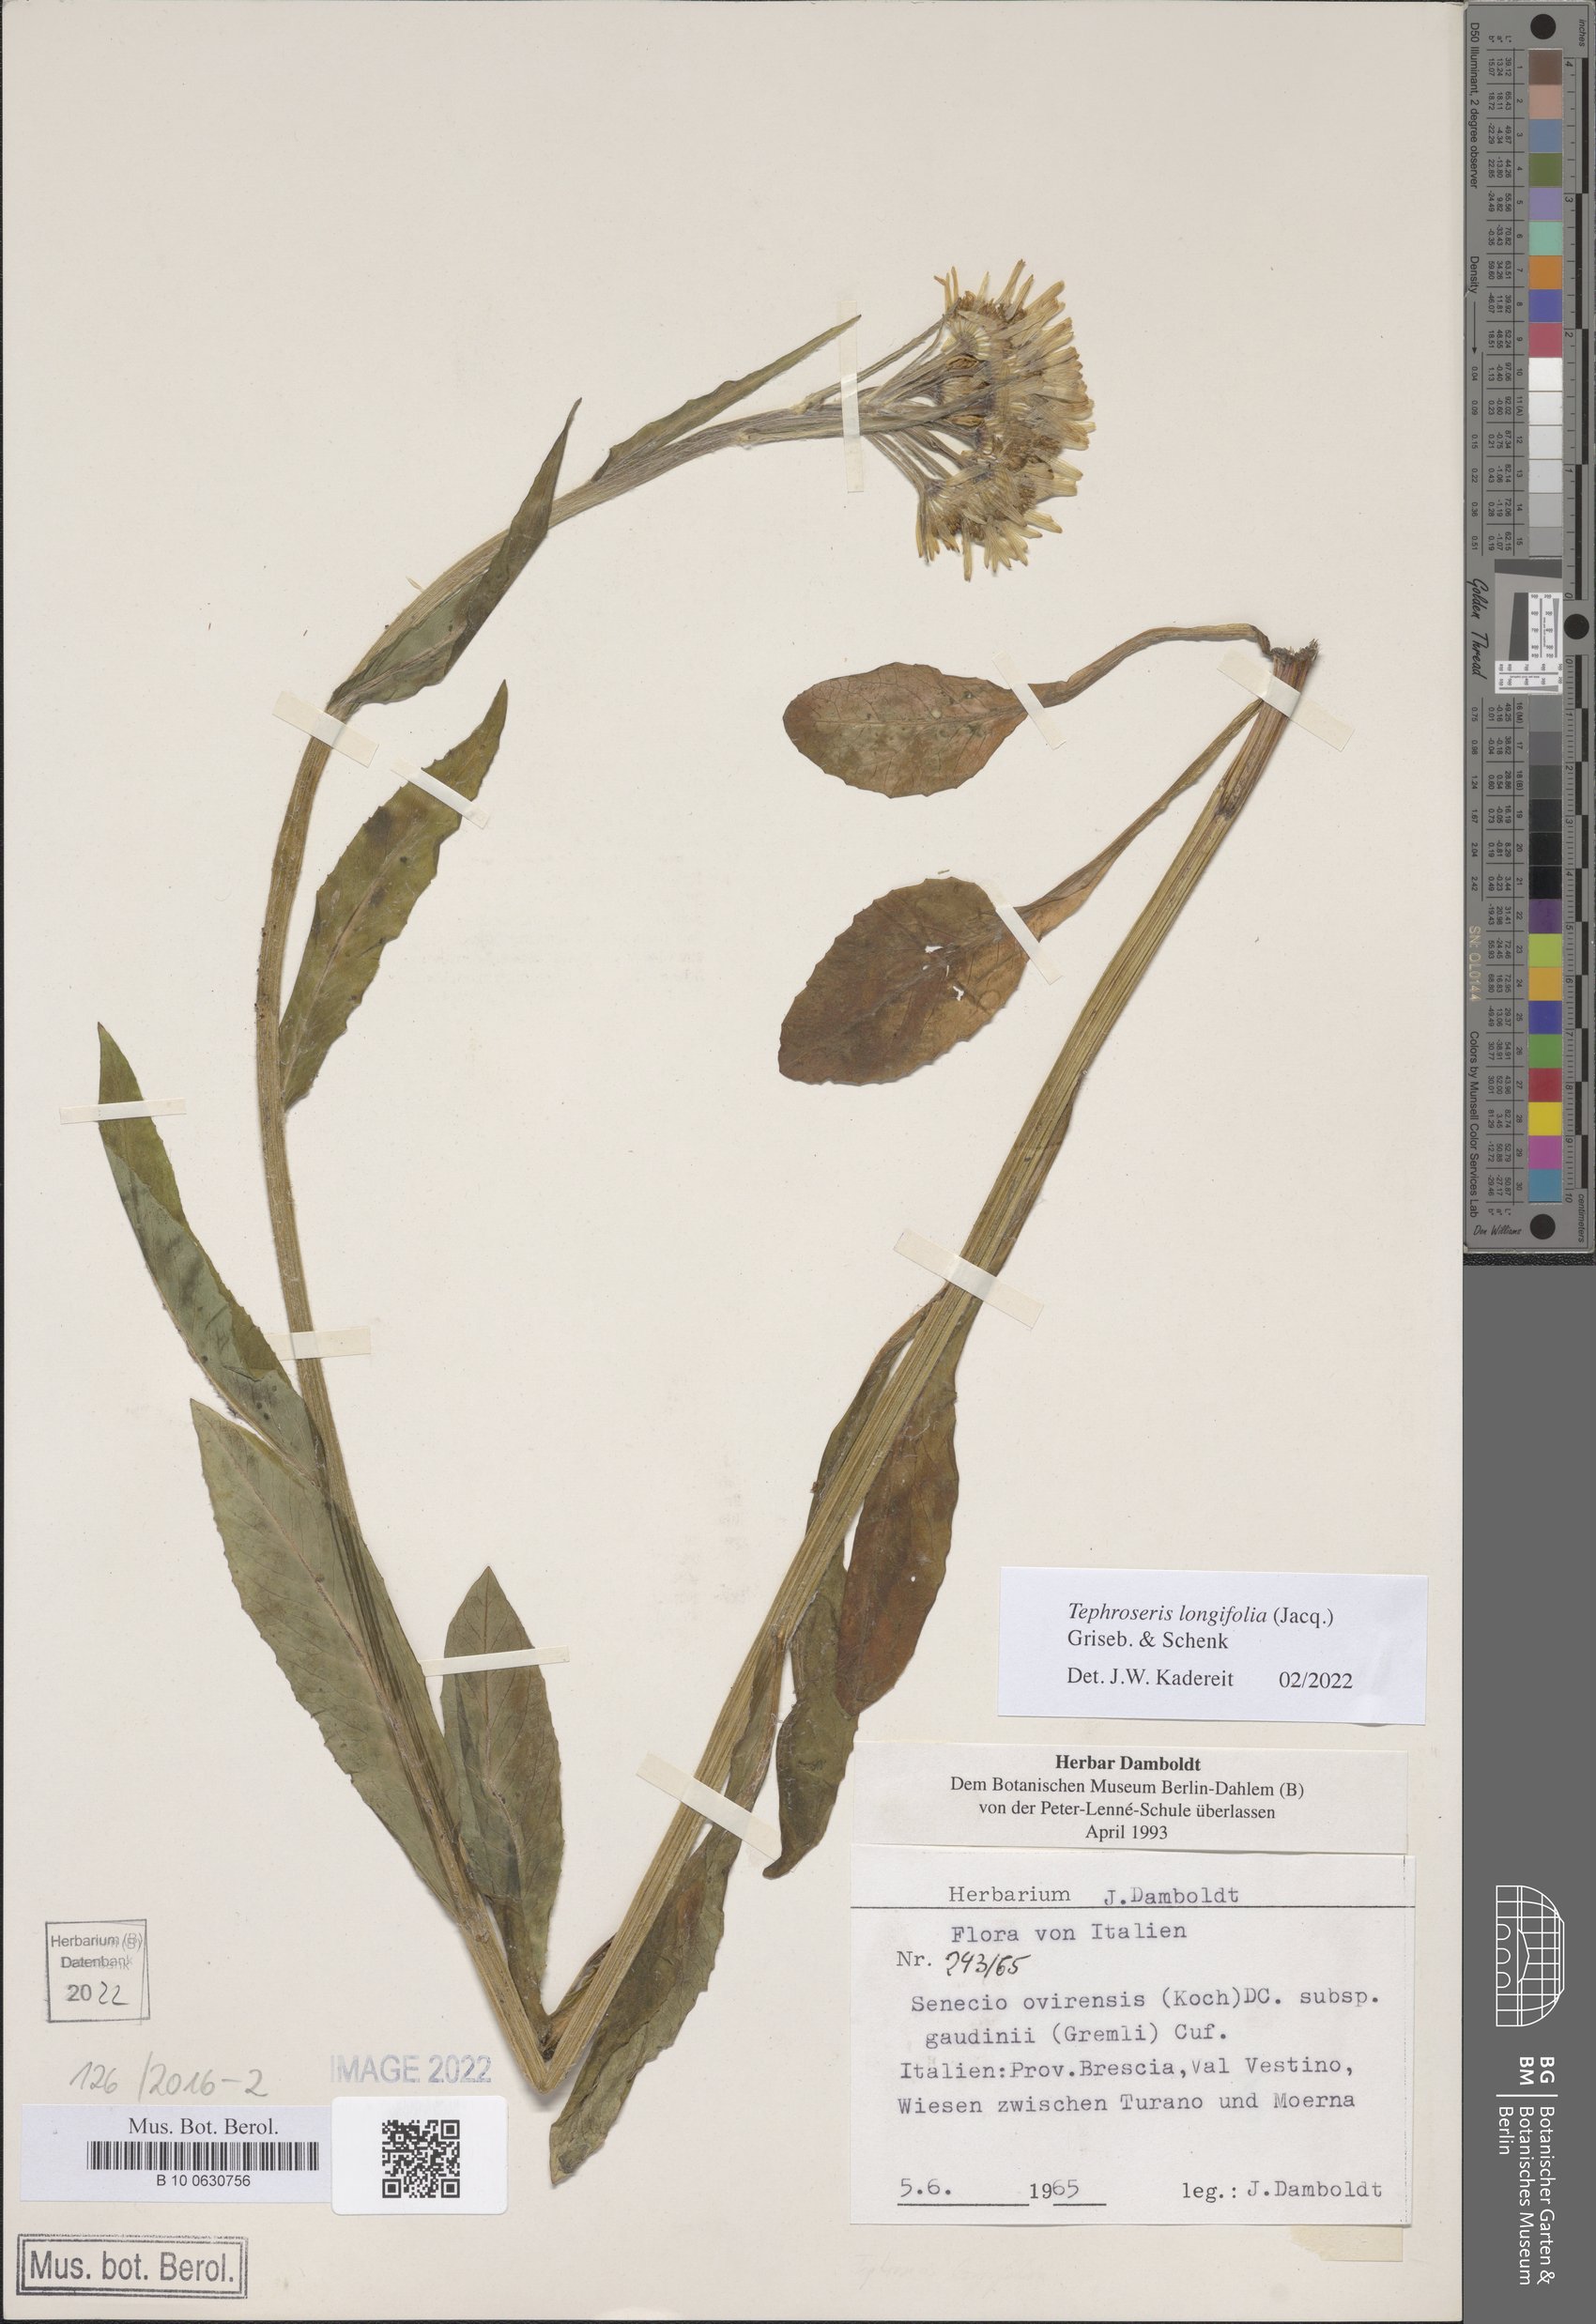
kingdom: Plantae
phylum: Tracheophyta
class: Magnoliopsida
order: Asterales
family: Asteraceae
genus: Tephroseris
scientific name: Tephroseris longifolia
